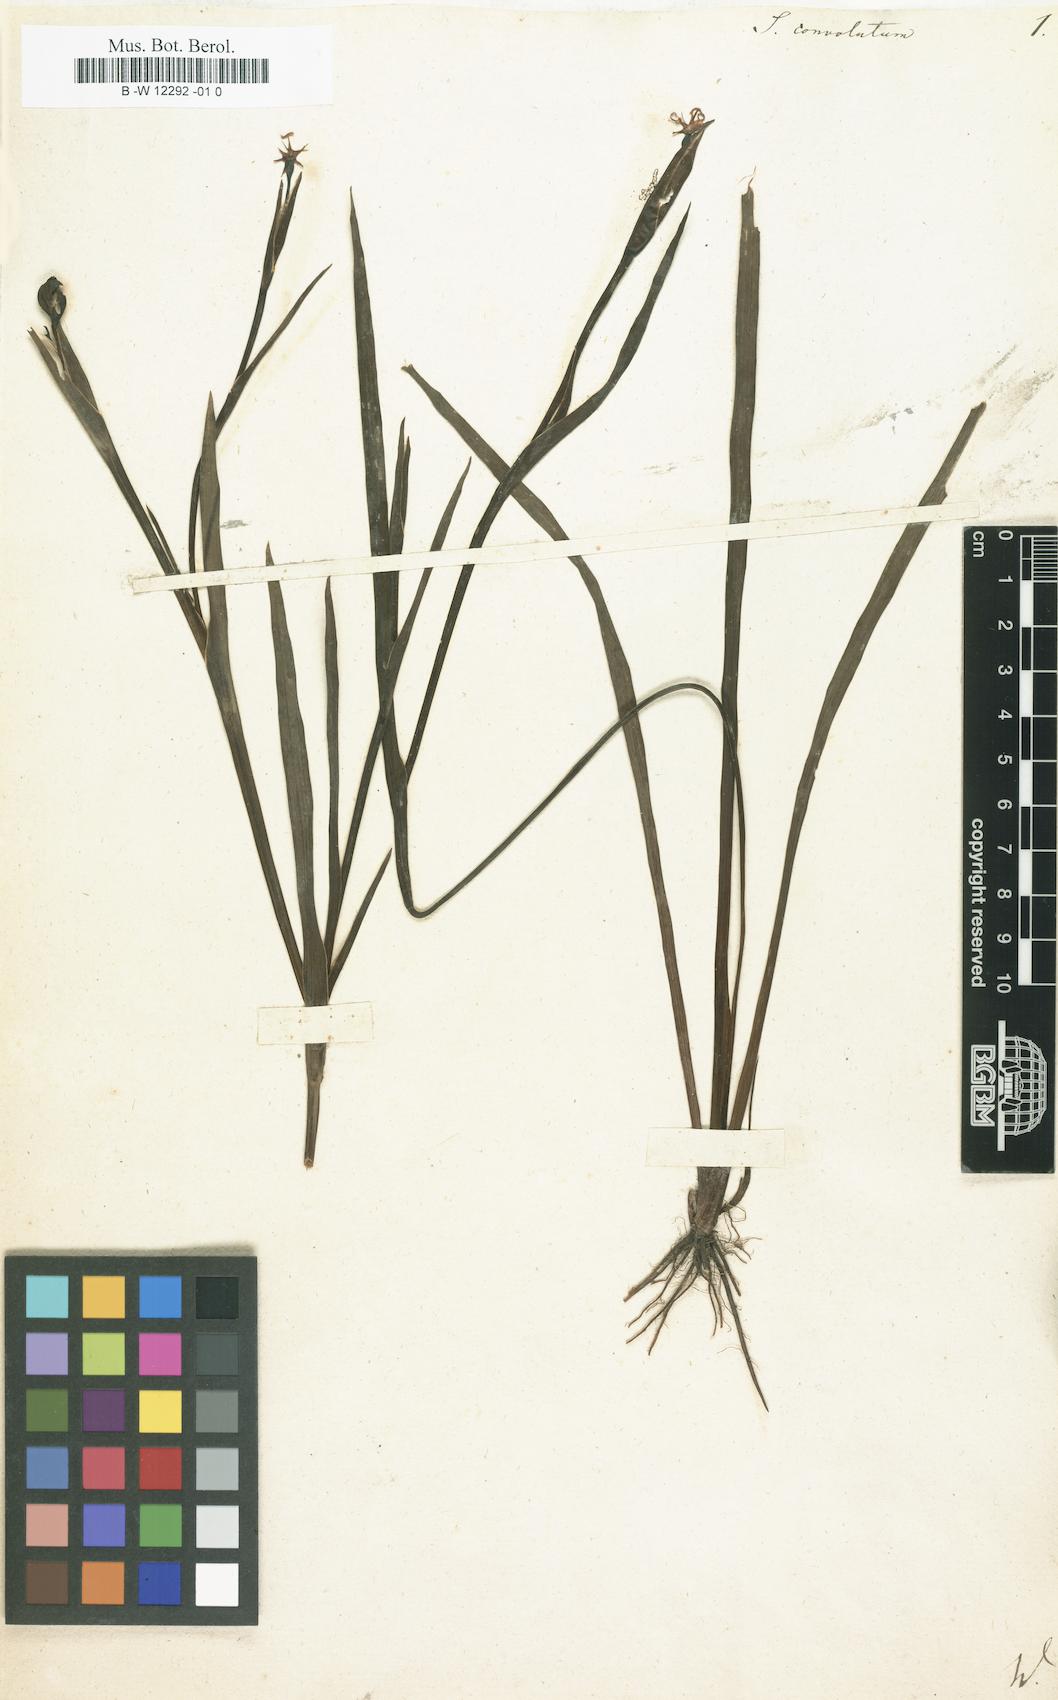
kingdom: Plantae
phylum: Tracheophyta
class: Liliopsida
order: Asparagales
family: Iridaceae
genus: Sisyrinchium
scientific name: Sisyrinchium convolutum
